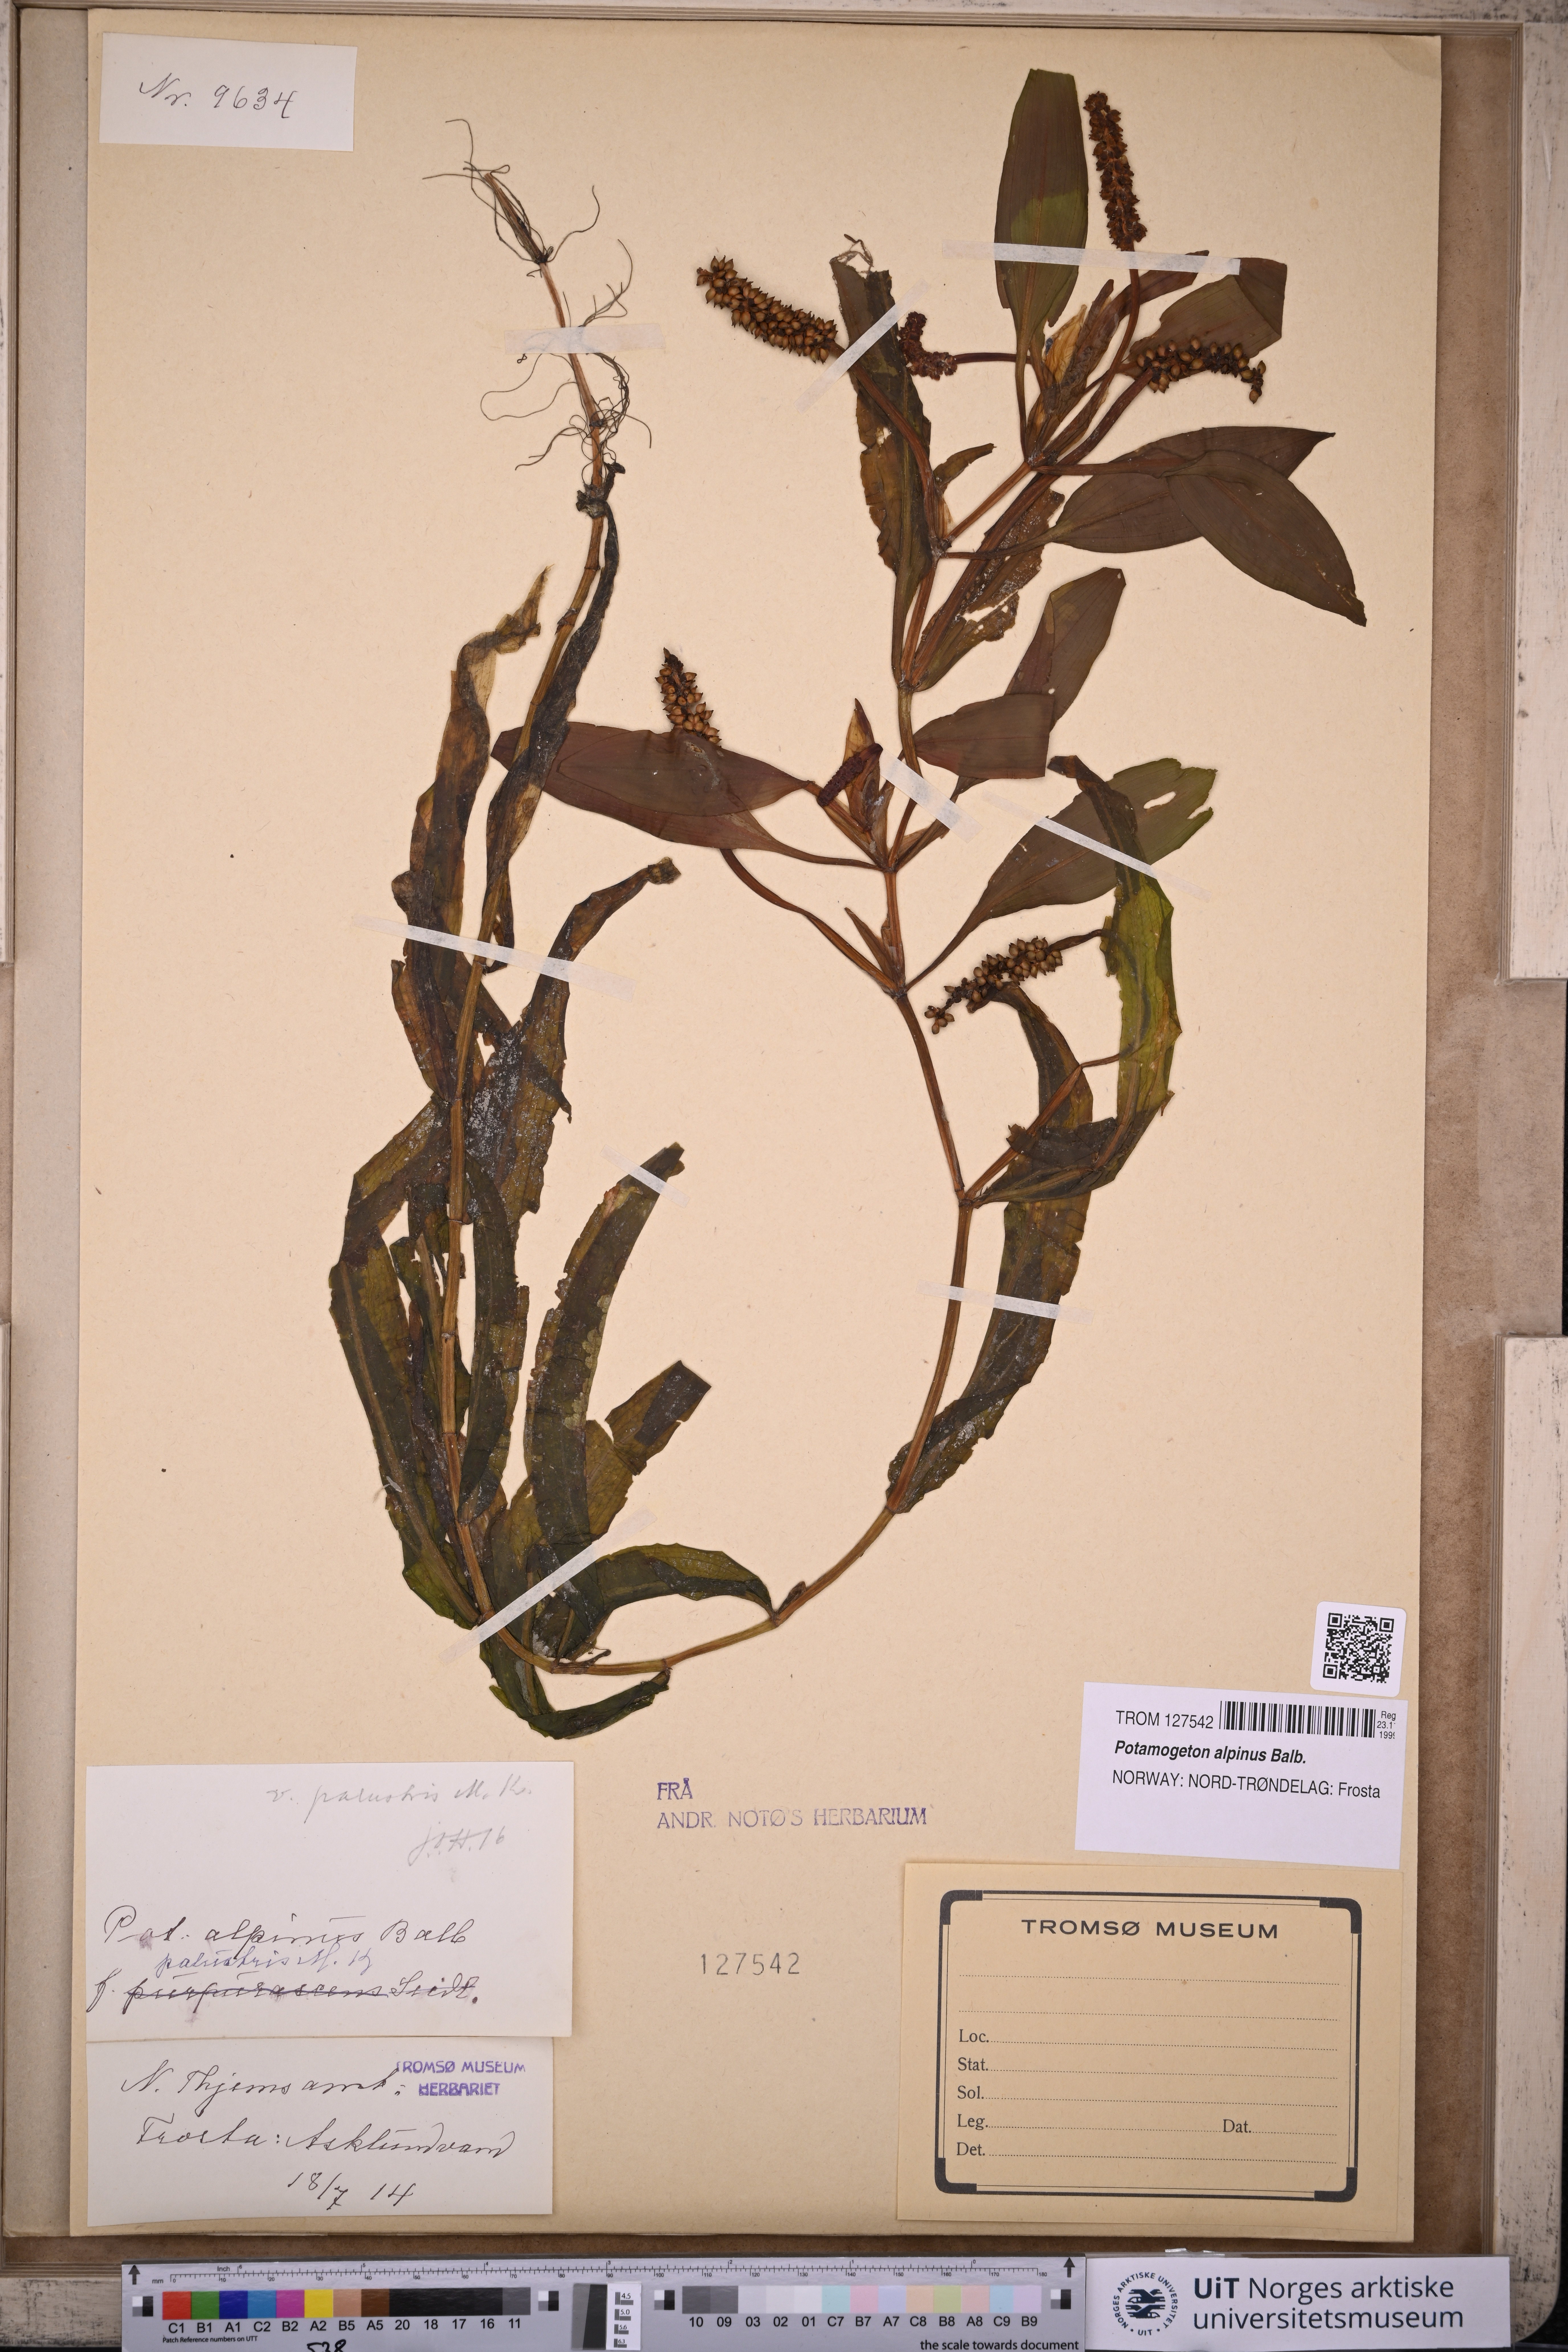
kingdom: Plantae
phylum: Tracheophyta
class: Liliopsida
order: Alismatales
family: Potamogetonaceae
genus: Potamogeton
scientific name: Potamogeton alpinus
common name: Red pondweed
